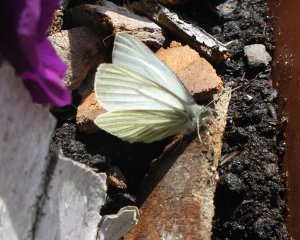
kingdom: Animalia
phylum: Arthropoda
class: Insecta
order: Lepidoptera
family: Pieridae
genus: Pieris
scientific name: Pieris marginalis
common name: Margined White
